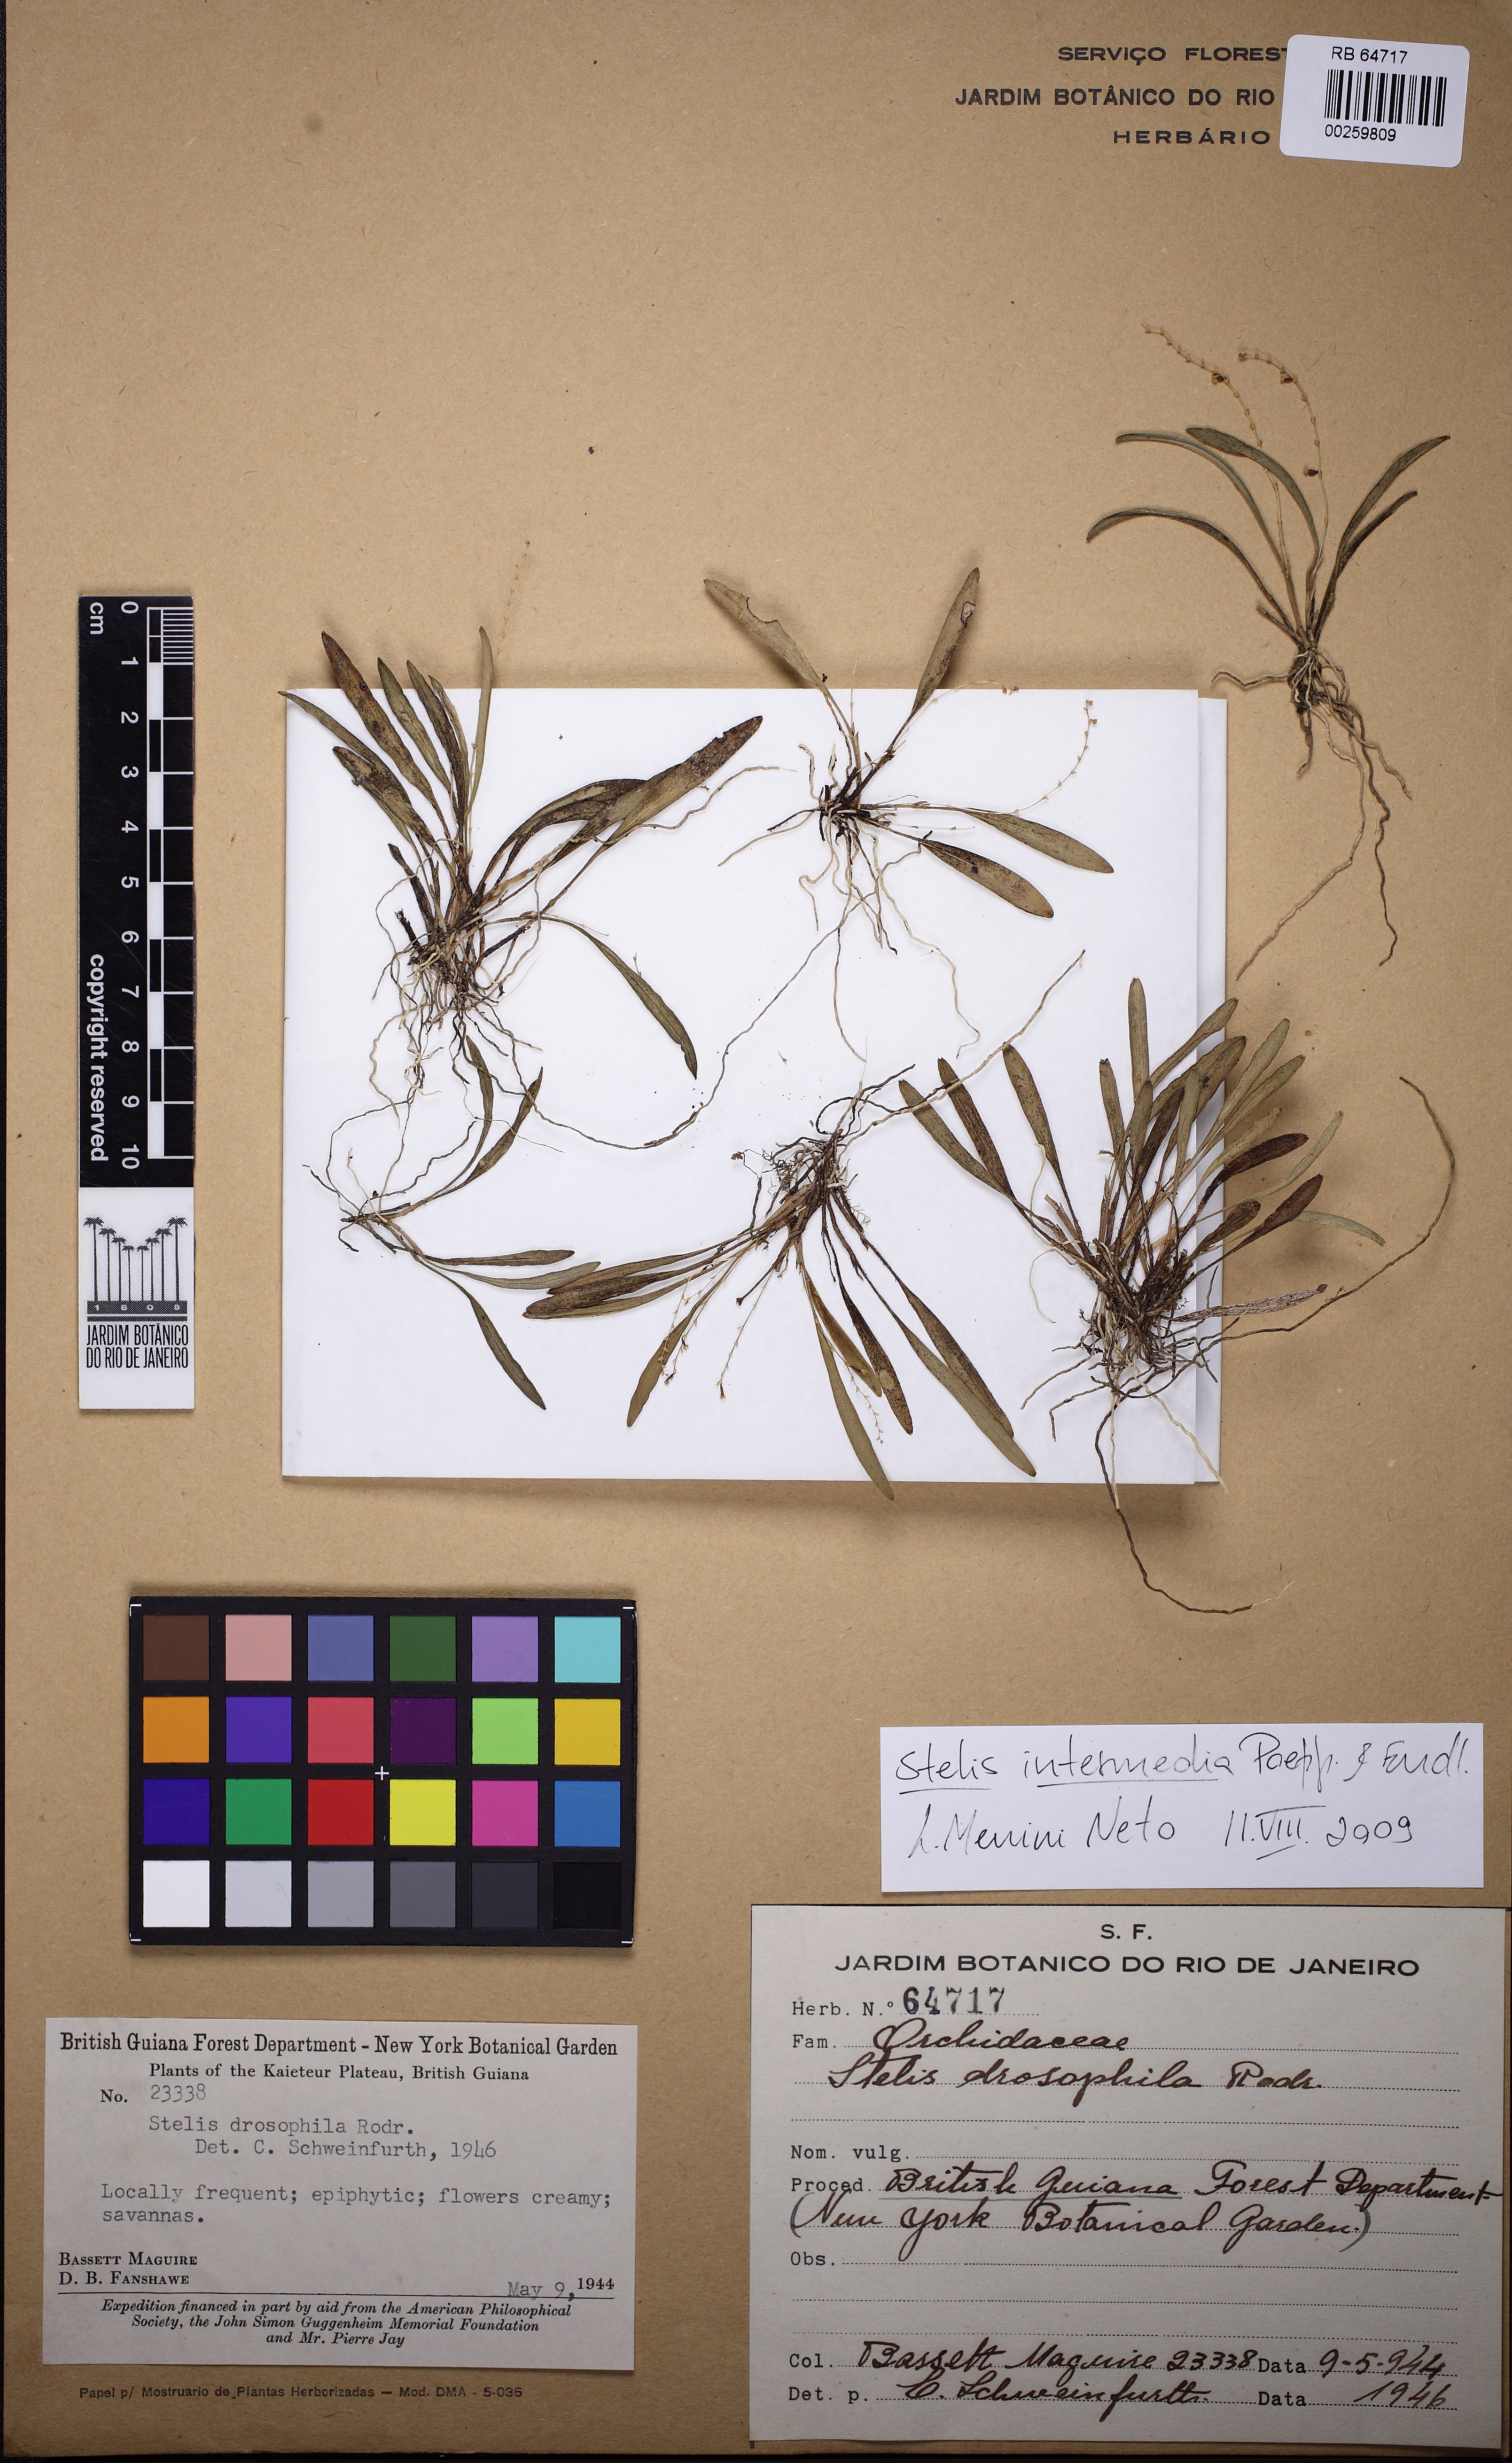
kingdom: Plantae
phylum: Tracheophyta
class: Liliopsida
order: Asparagales
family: Orchidaceae
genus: Stelis
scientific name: Stelis intermedia
